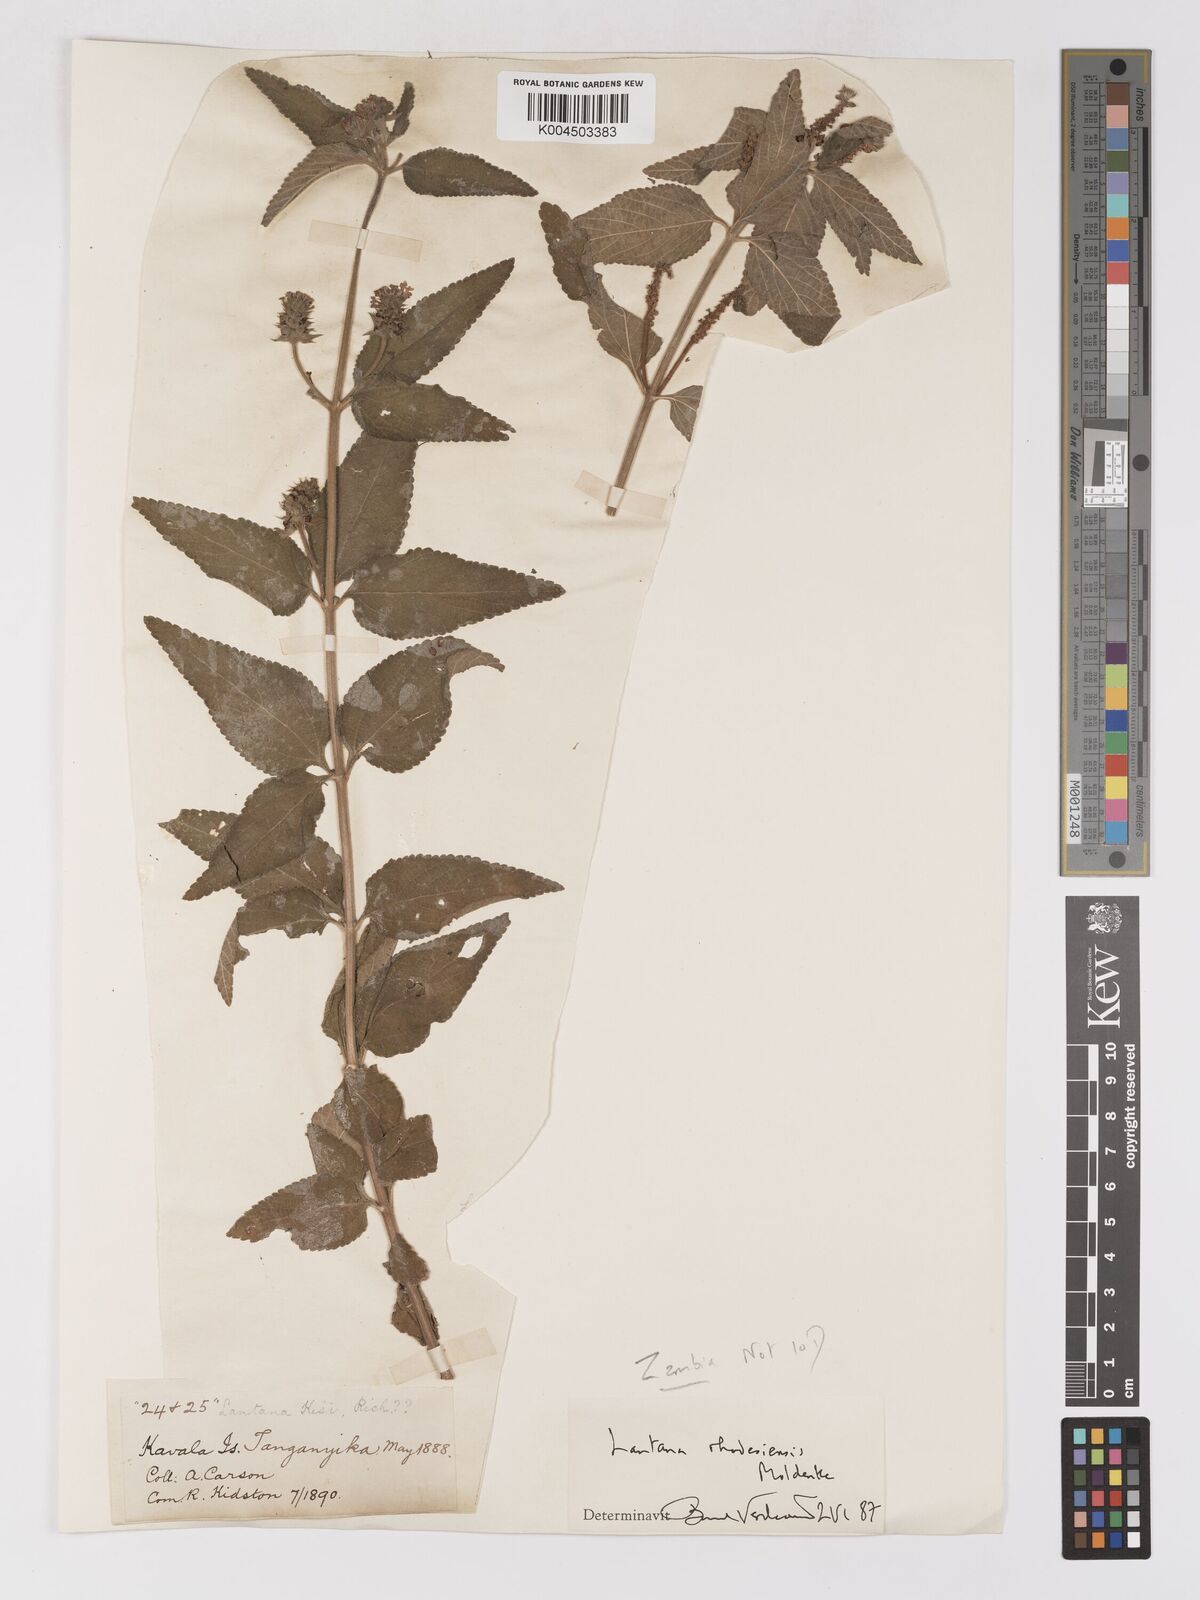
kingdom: Plantae
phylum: Tracheophyta
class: Magnoliopsida
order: Lamiales
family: Verbenaceae
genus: Lantana
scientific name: Lantana ukambensis
